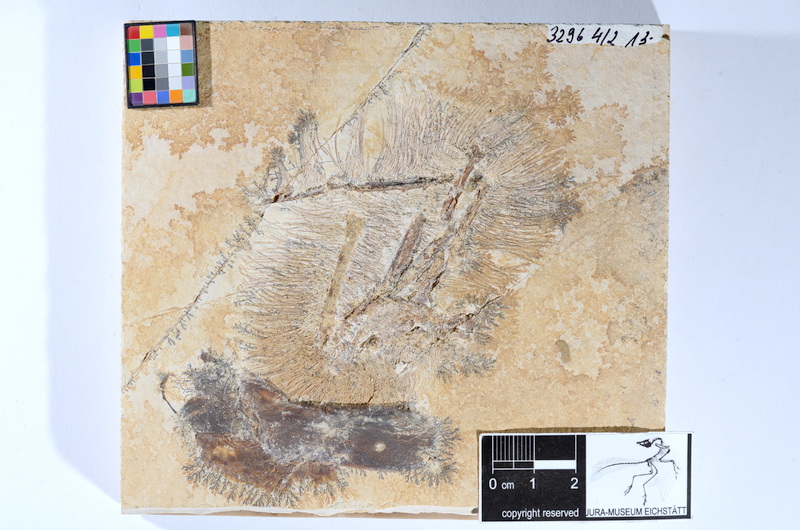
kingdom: Animalia
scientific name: Animalia
